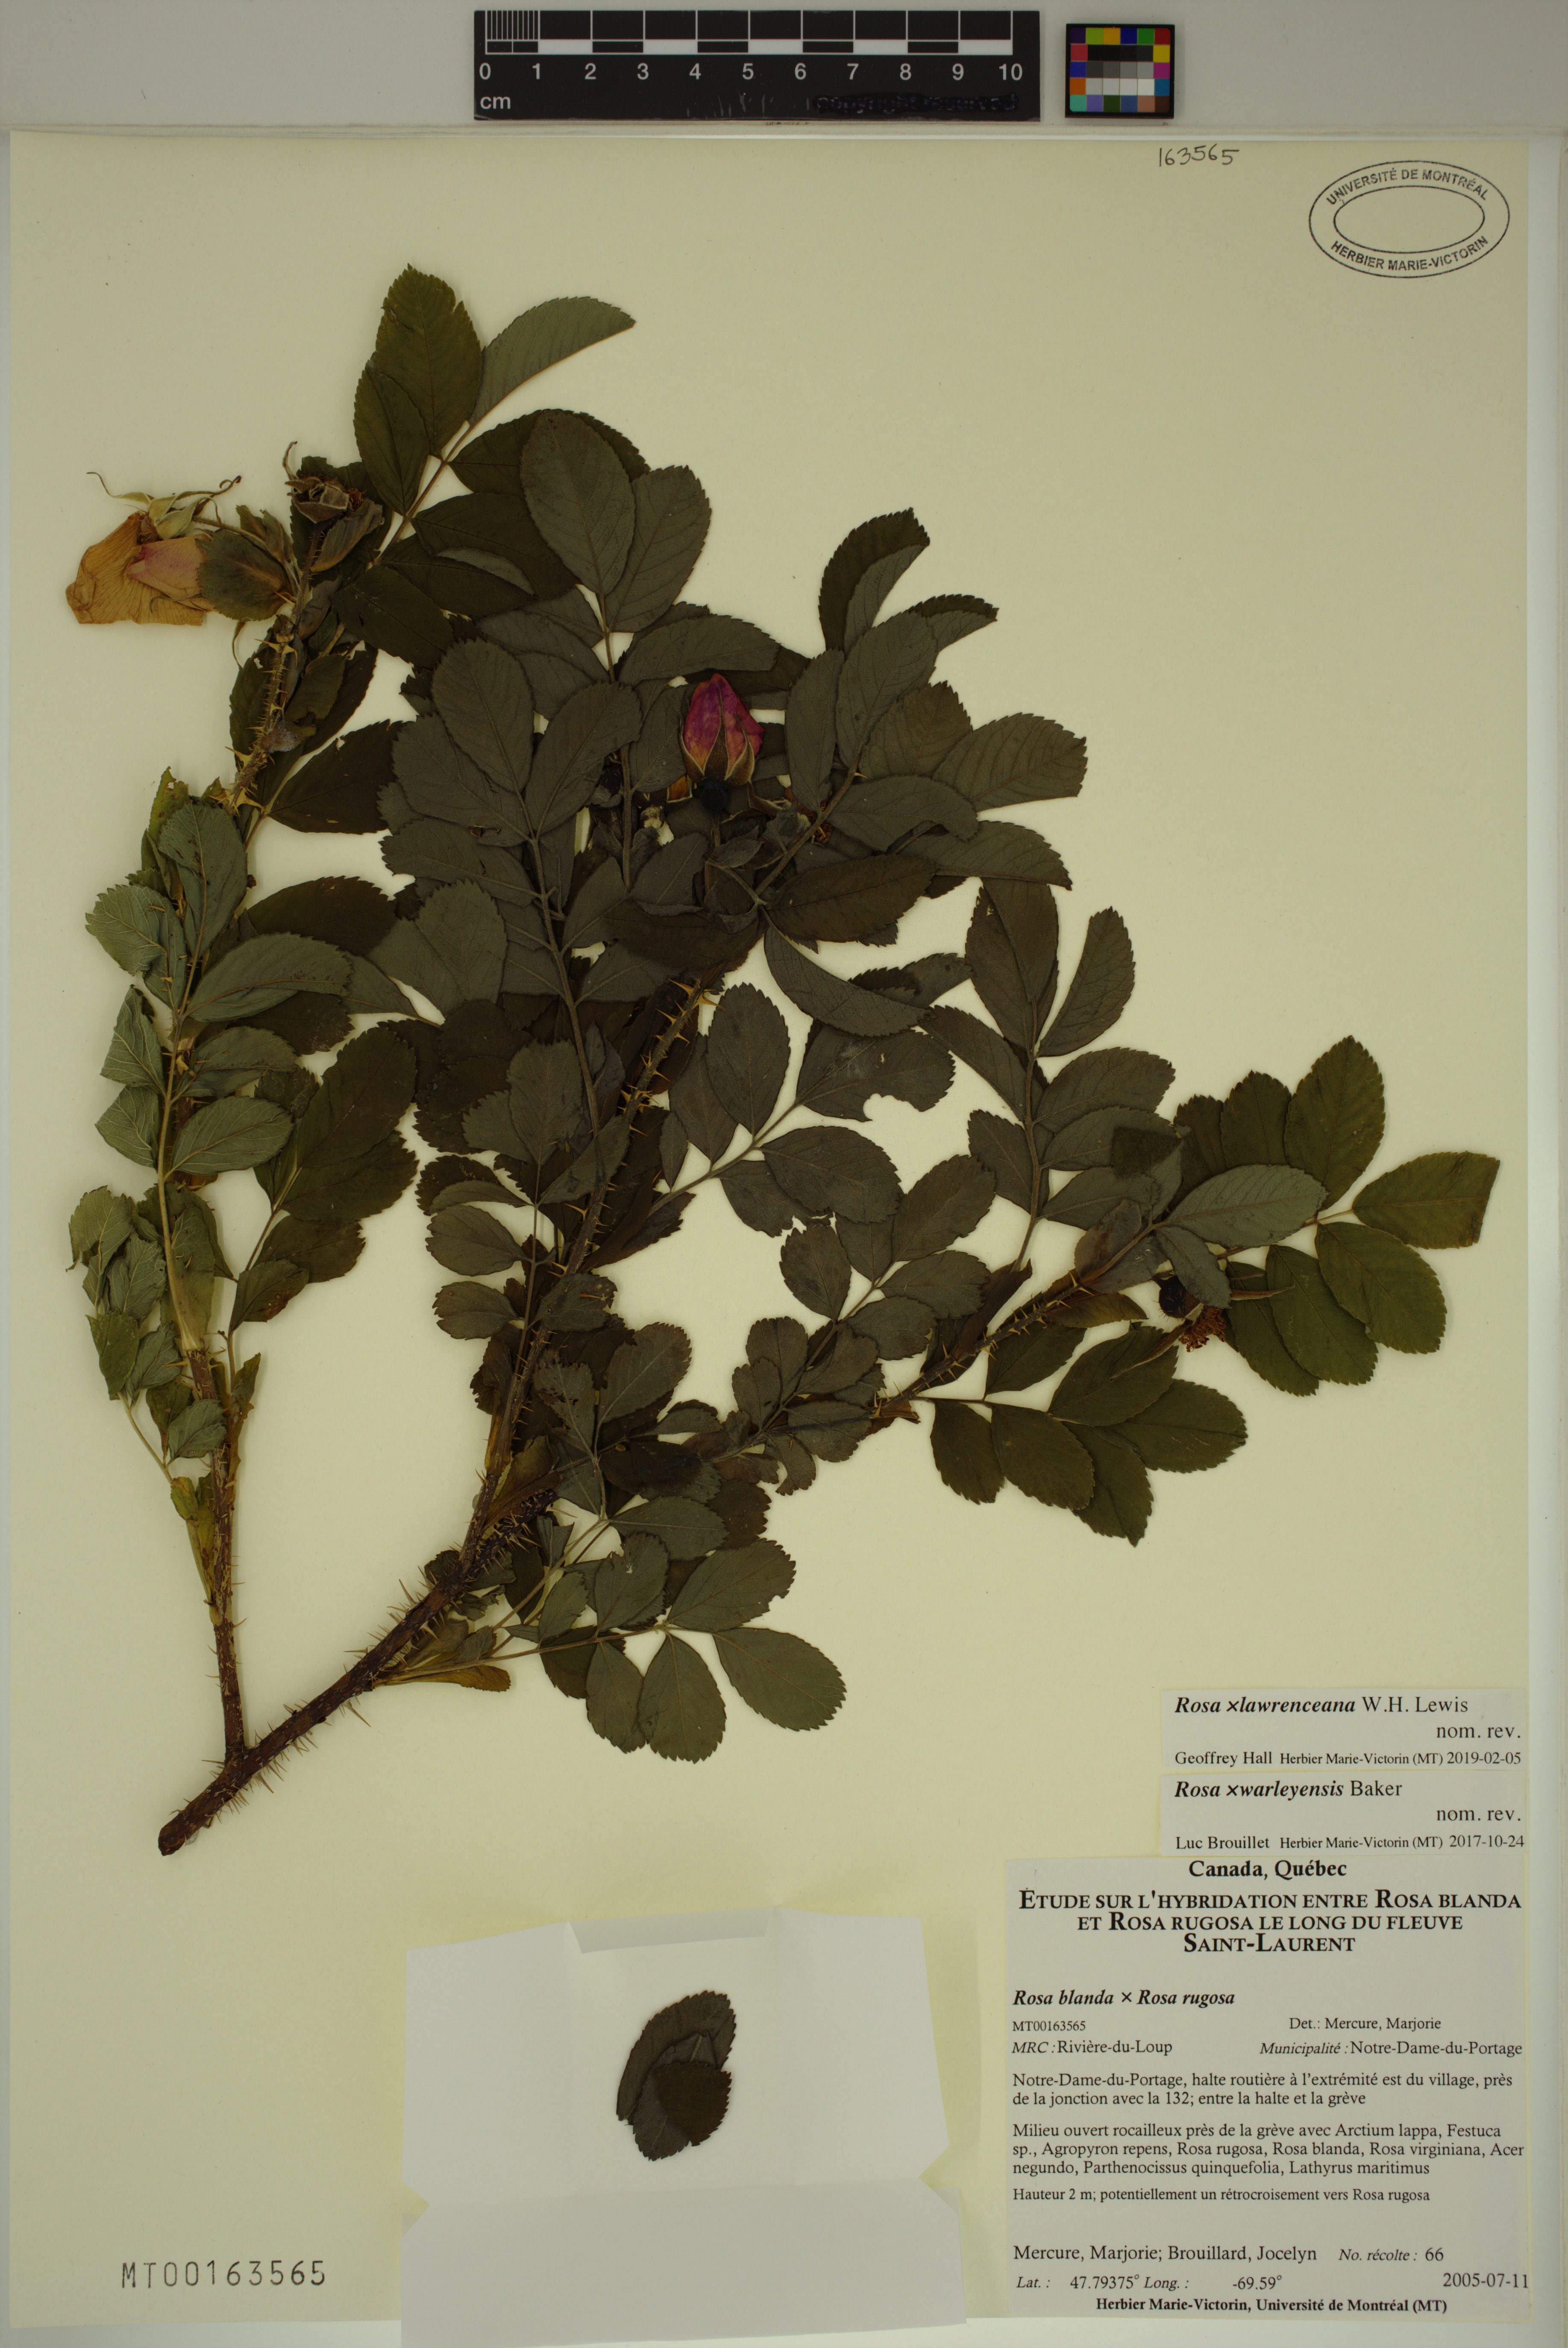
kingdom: Plantae
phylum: Tracheophyta
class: Magnoliopsida
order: Rosales
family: Rosaceae
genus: Rosa
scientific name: Rosa chinensis
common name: China rose
